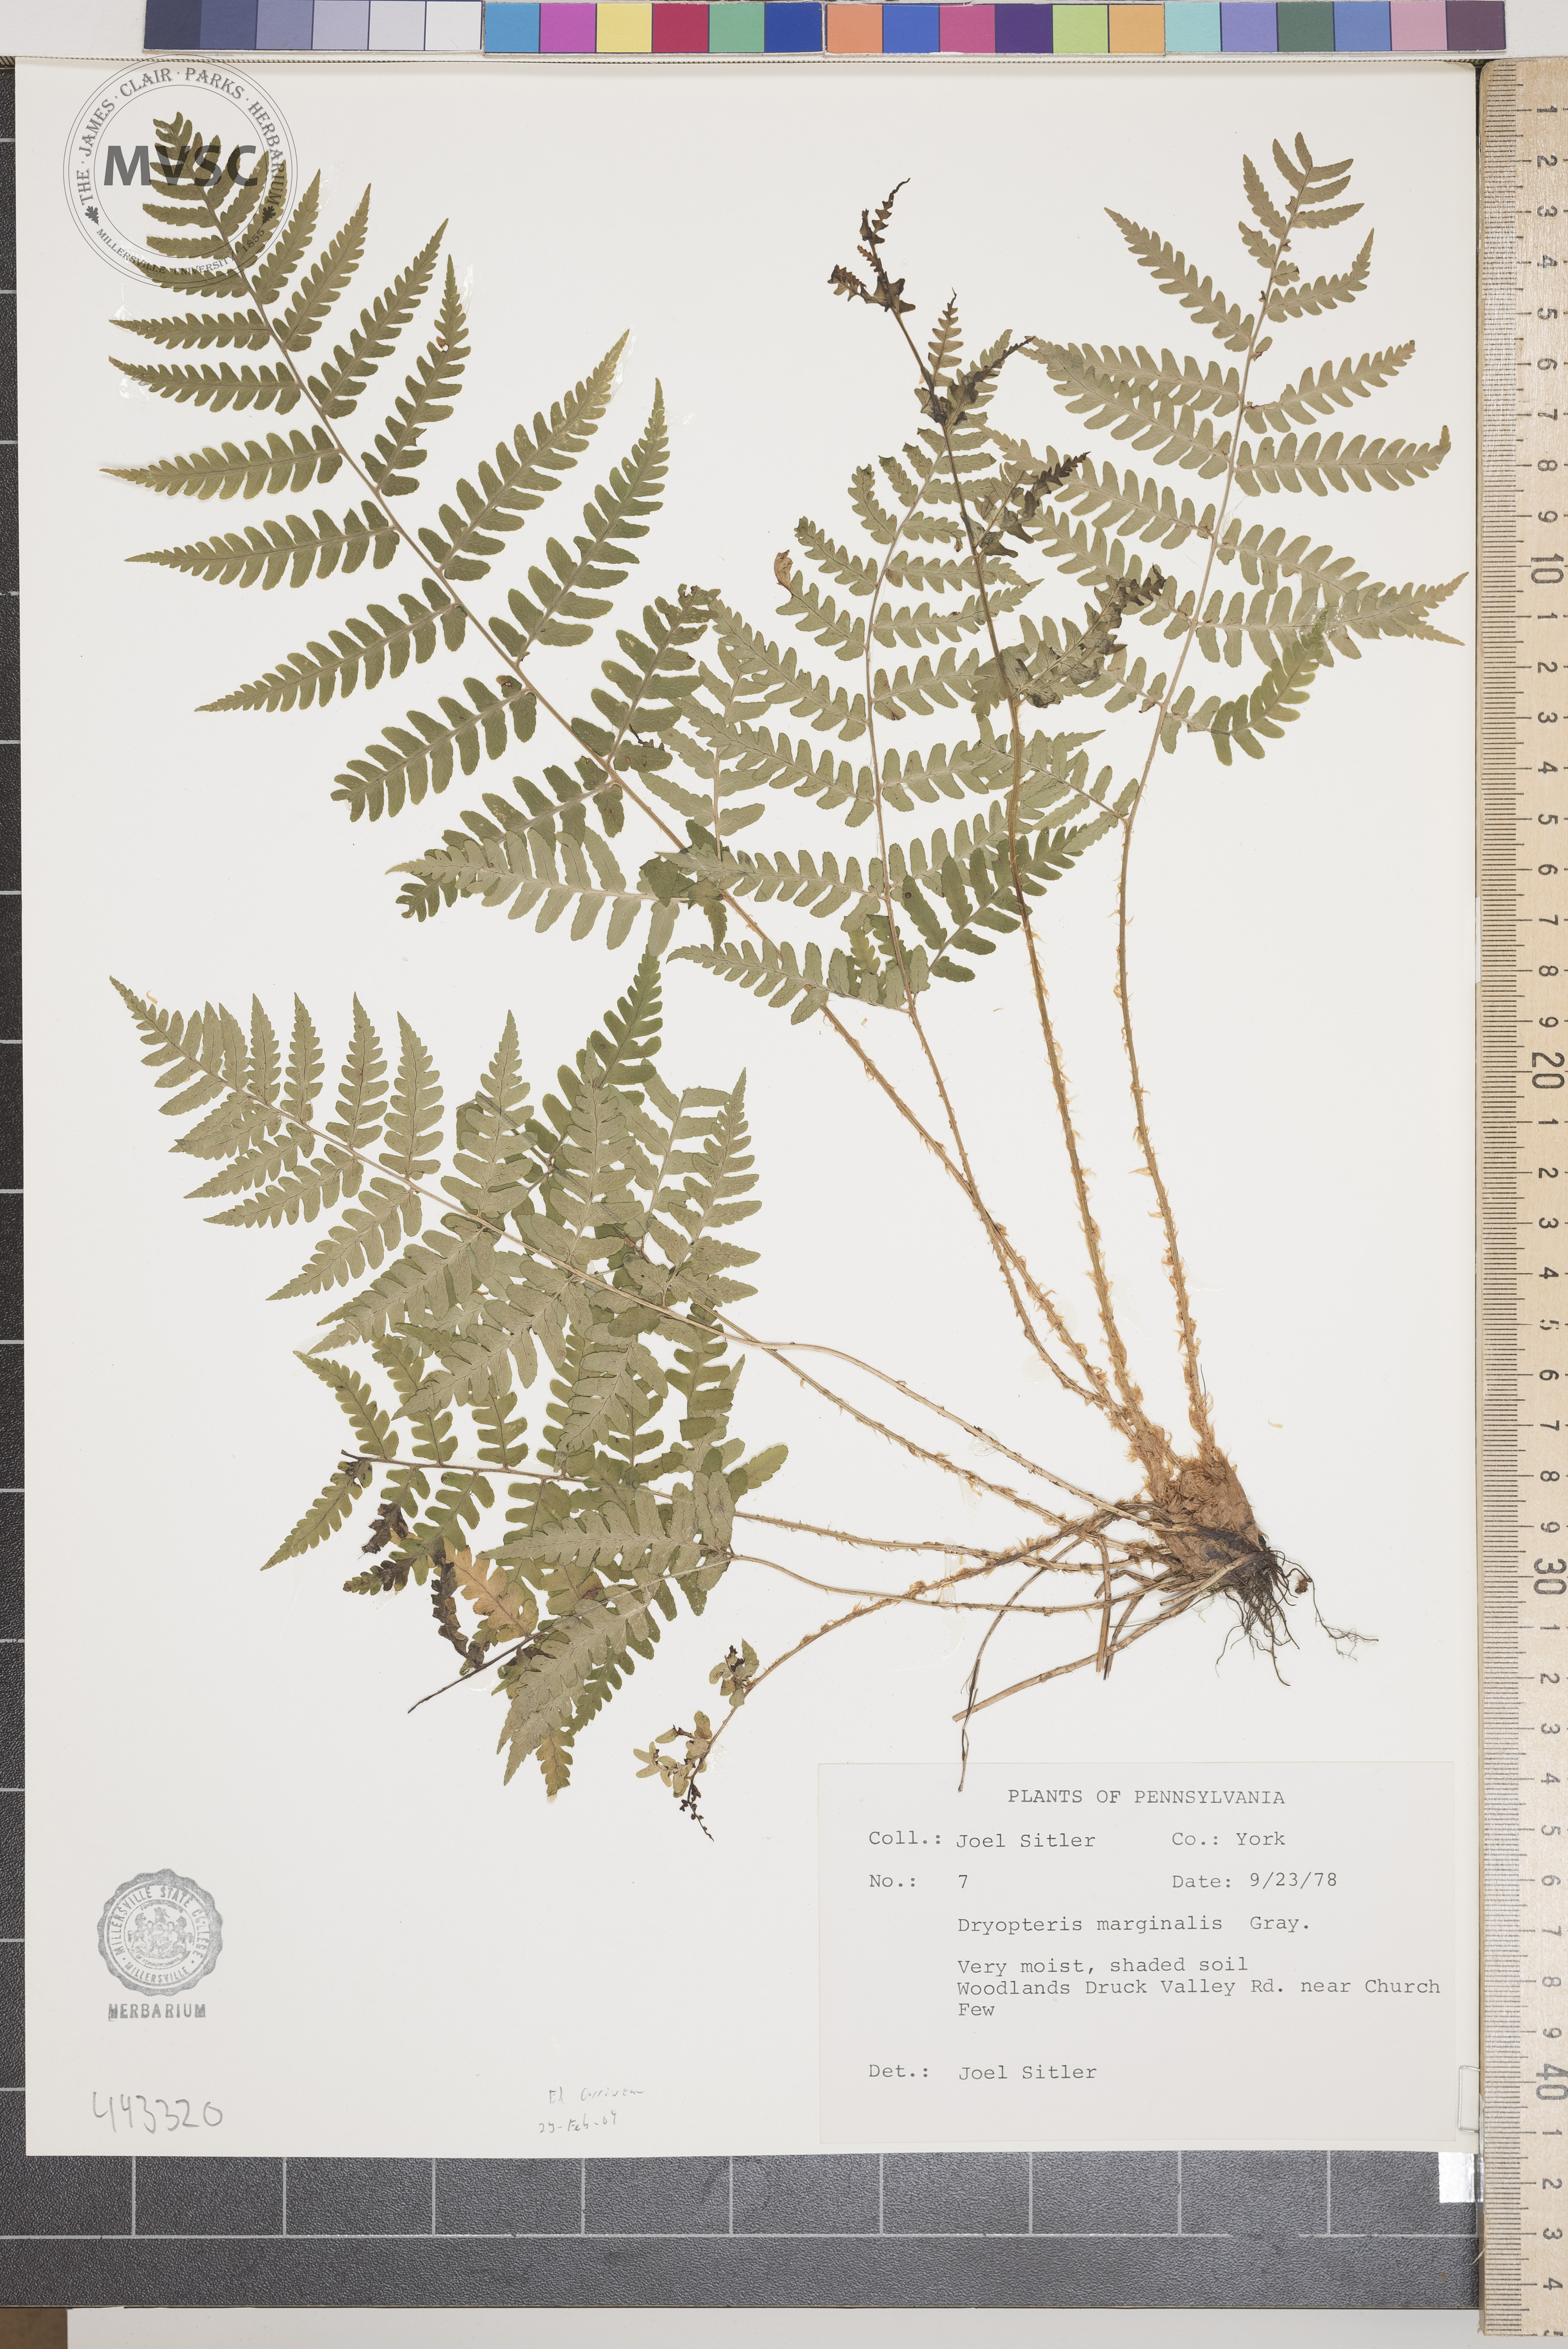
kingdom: Plantae
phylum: Tracheophyta
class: Polypodiopsida
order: Polypodiales
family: Dryopteridaceae
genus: Dryopteris
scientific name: Dryopteris marginalis
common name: Marginal wood fern
